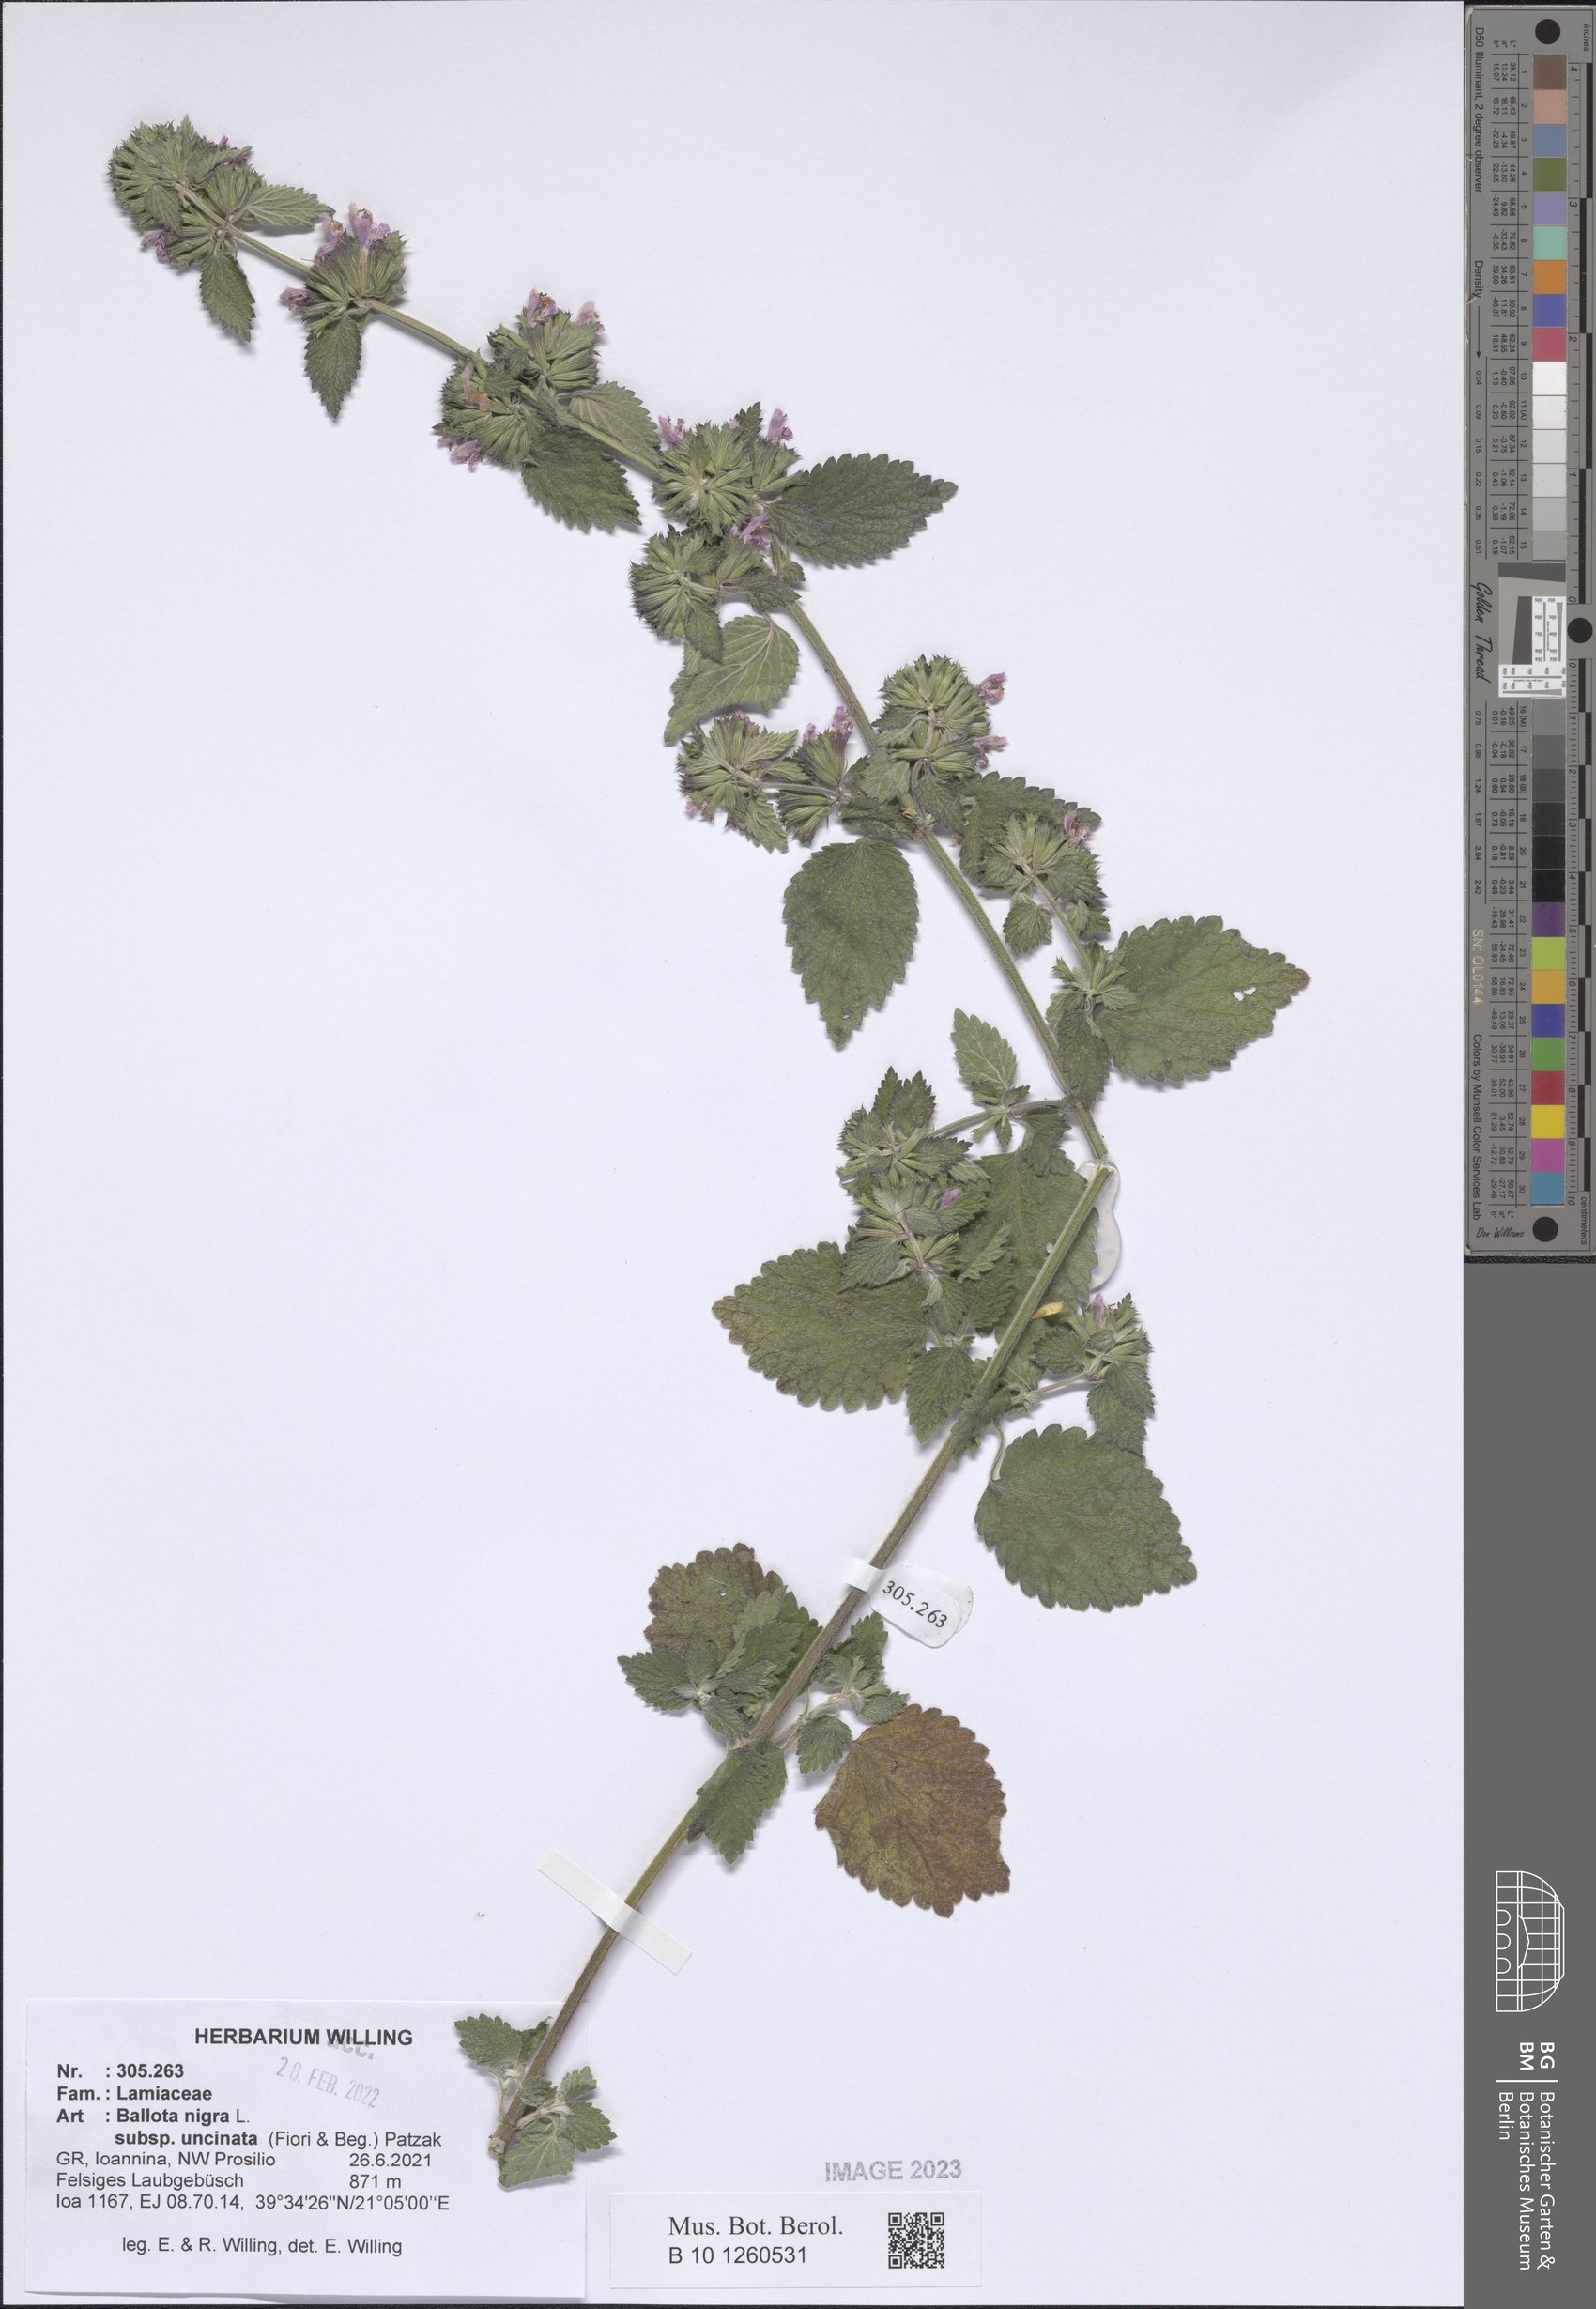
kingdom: Plantae
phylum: Tracheophyta
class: Magnoliopsida
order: Lamiales
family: Lamiaceae
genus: Ballota
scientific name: Ballota nigra
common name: Black horehound
